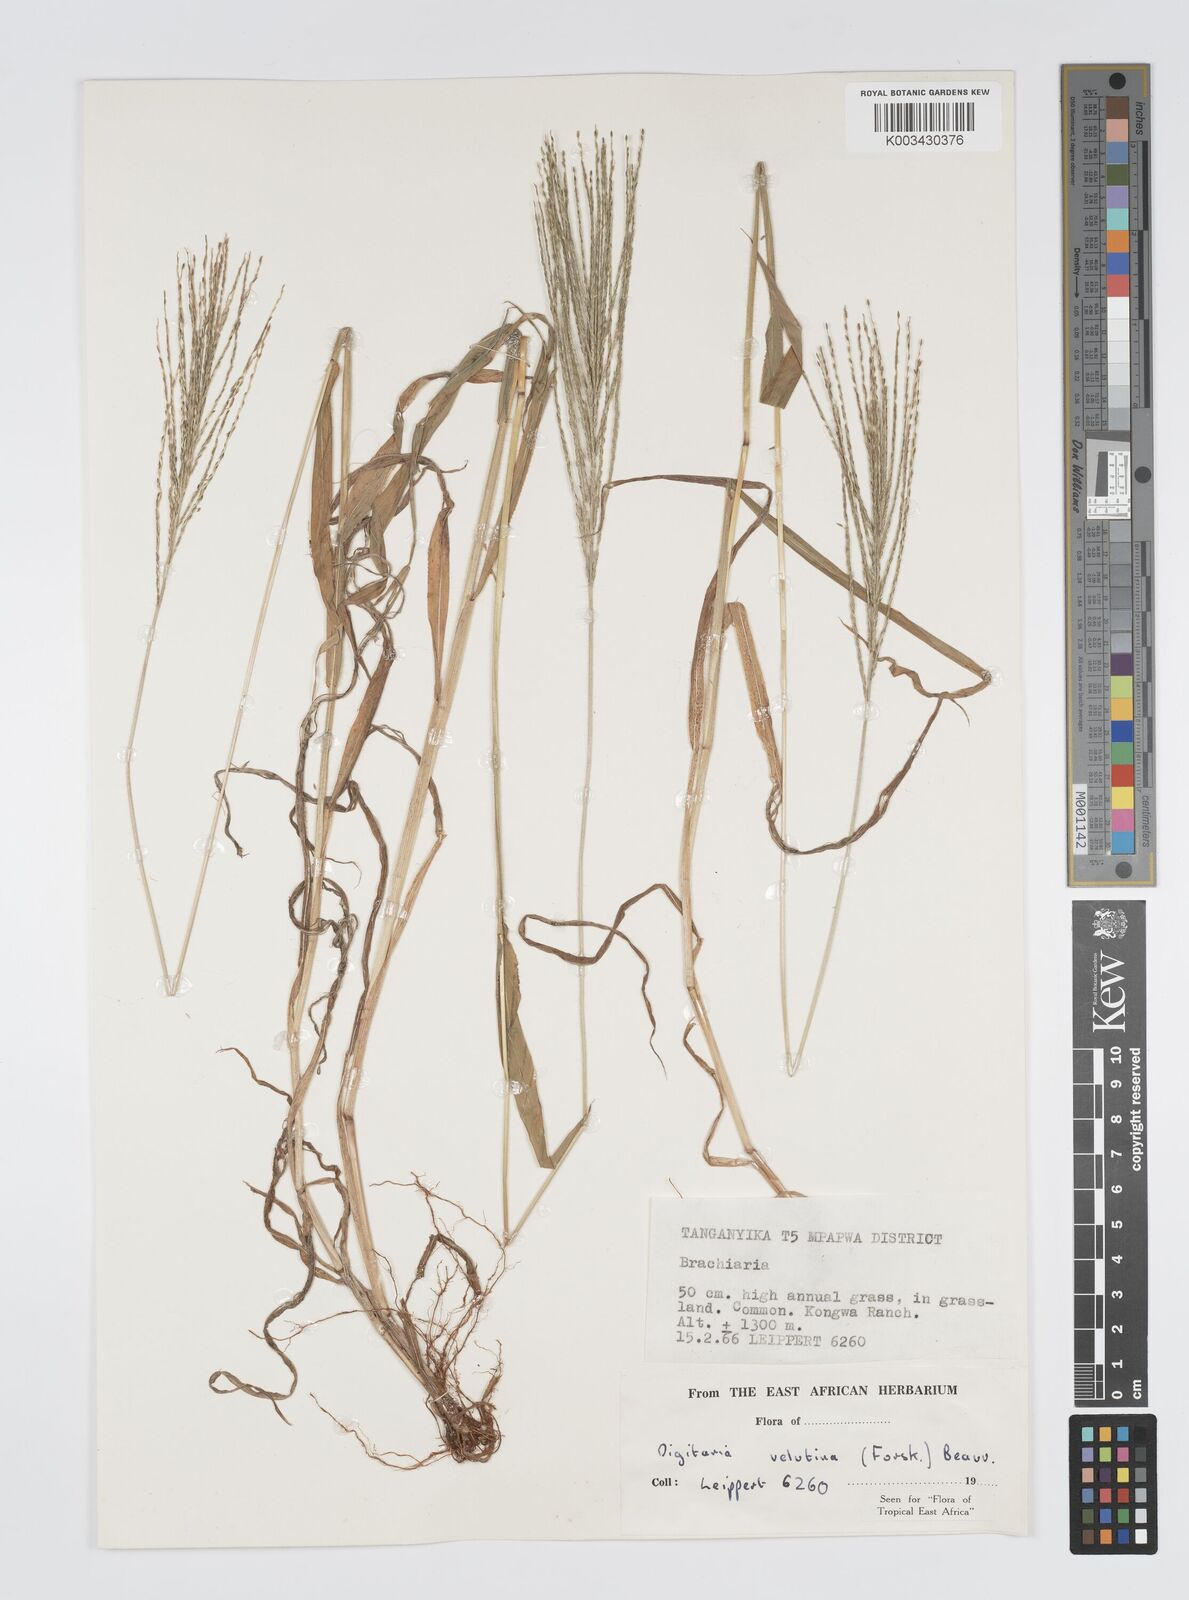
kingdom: Plantae
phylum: Tracheophyta
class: Liliopsida
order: Poales
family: Poaceae
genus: Digitaria
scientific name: Digitaria velutina
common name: Long-plume finger grass
